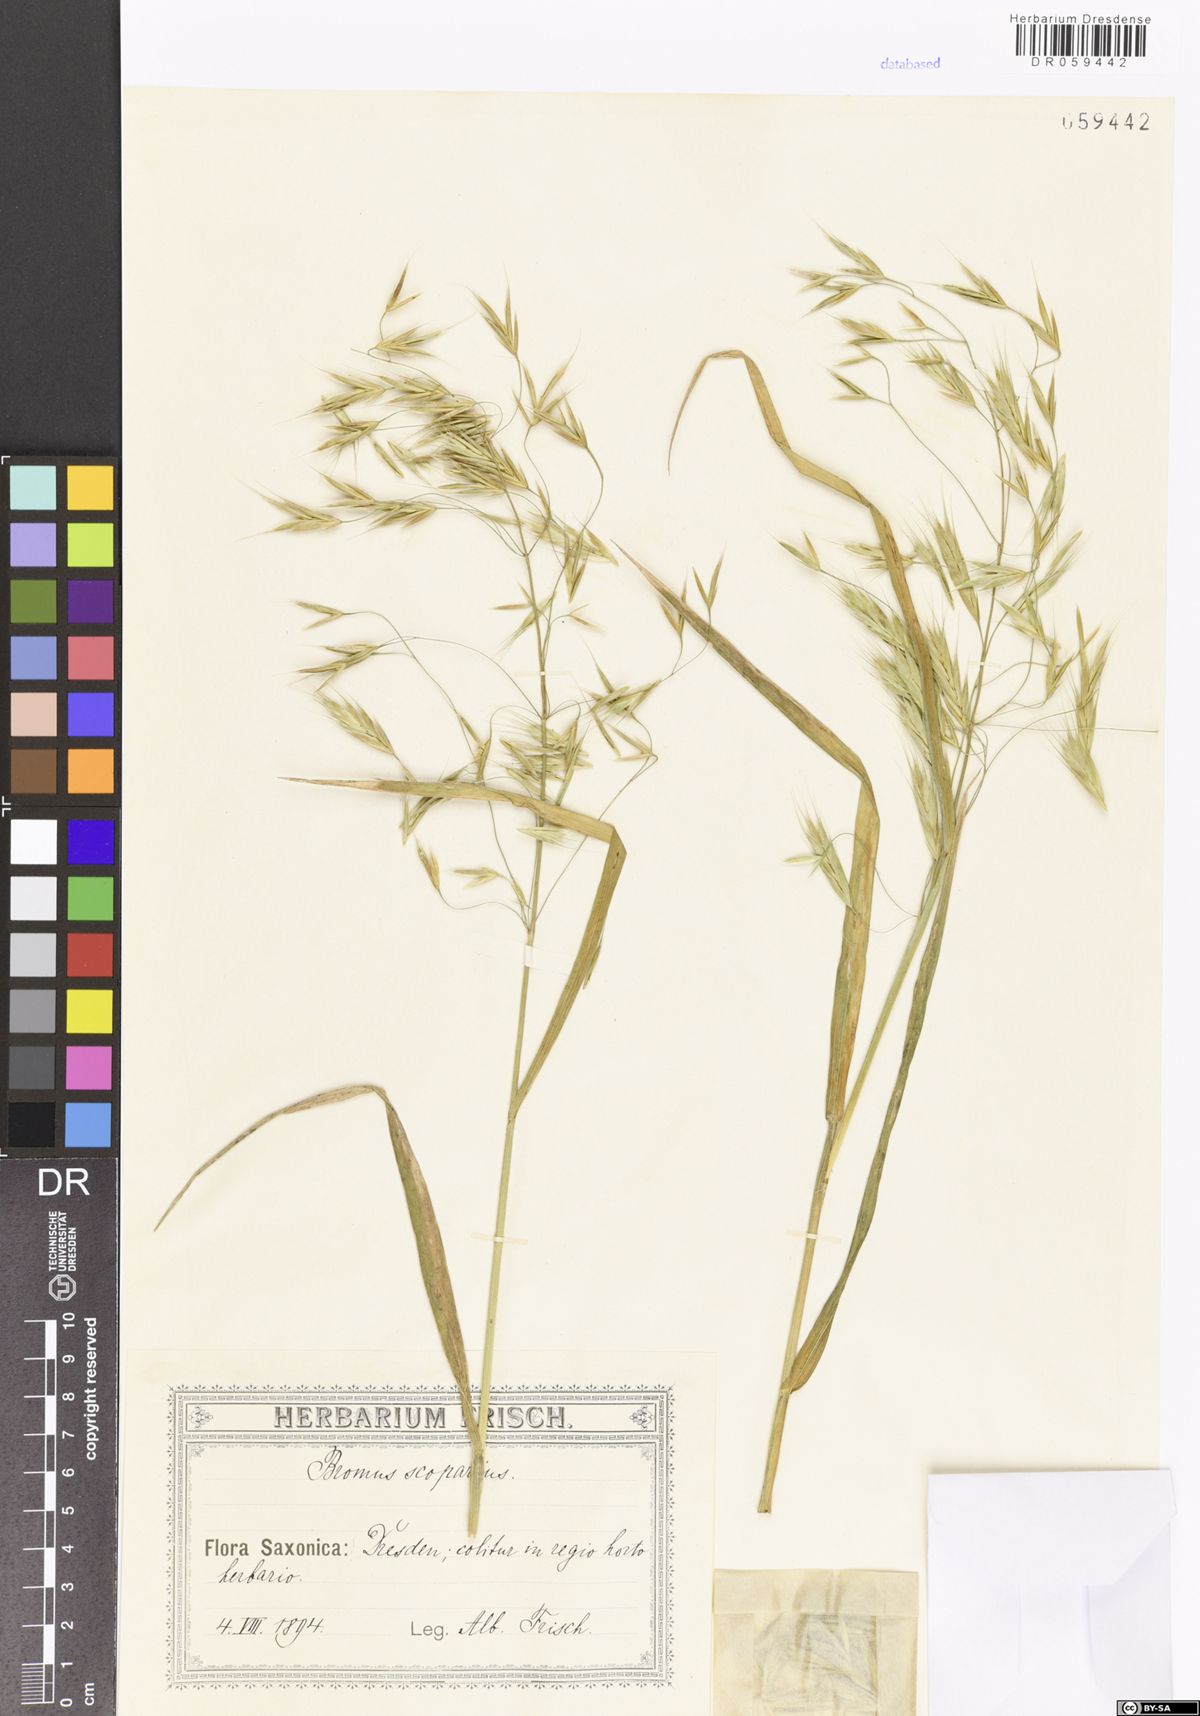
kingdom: Plantae
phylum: Tracheophyta
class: Liliopsida
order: Poales
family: Poaceae
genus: Bromus
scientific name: Bromus scoparius
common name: Broom brome
